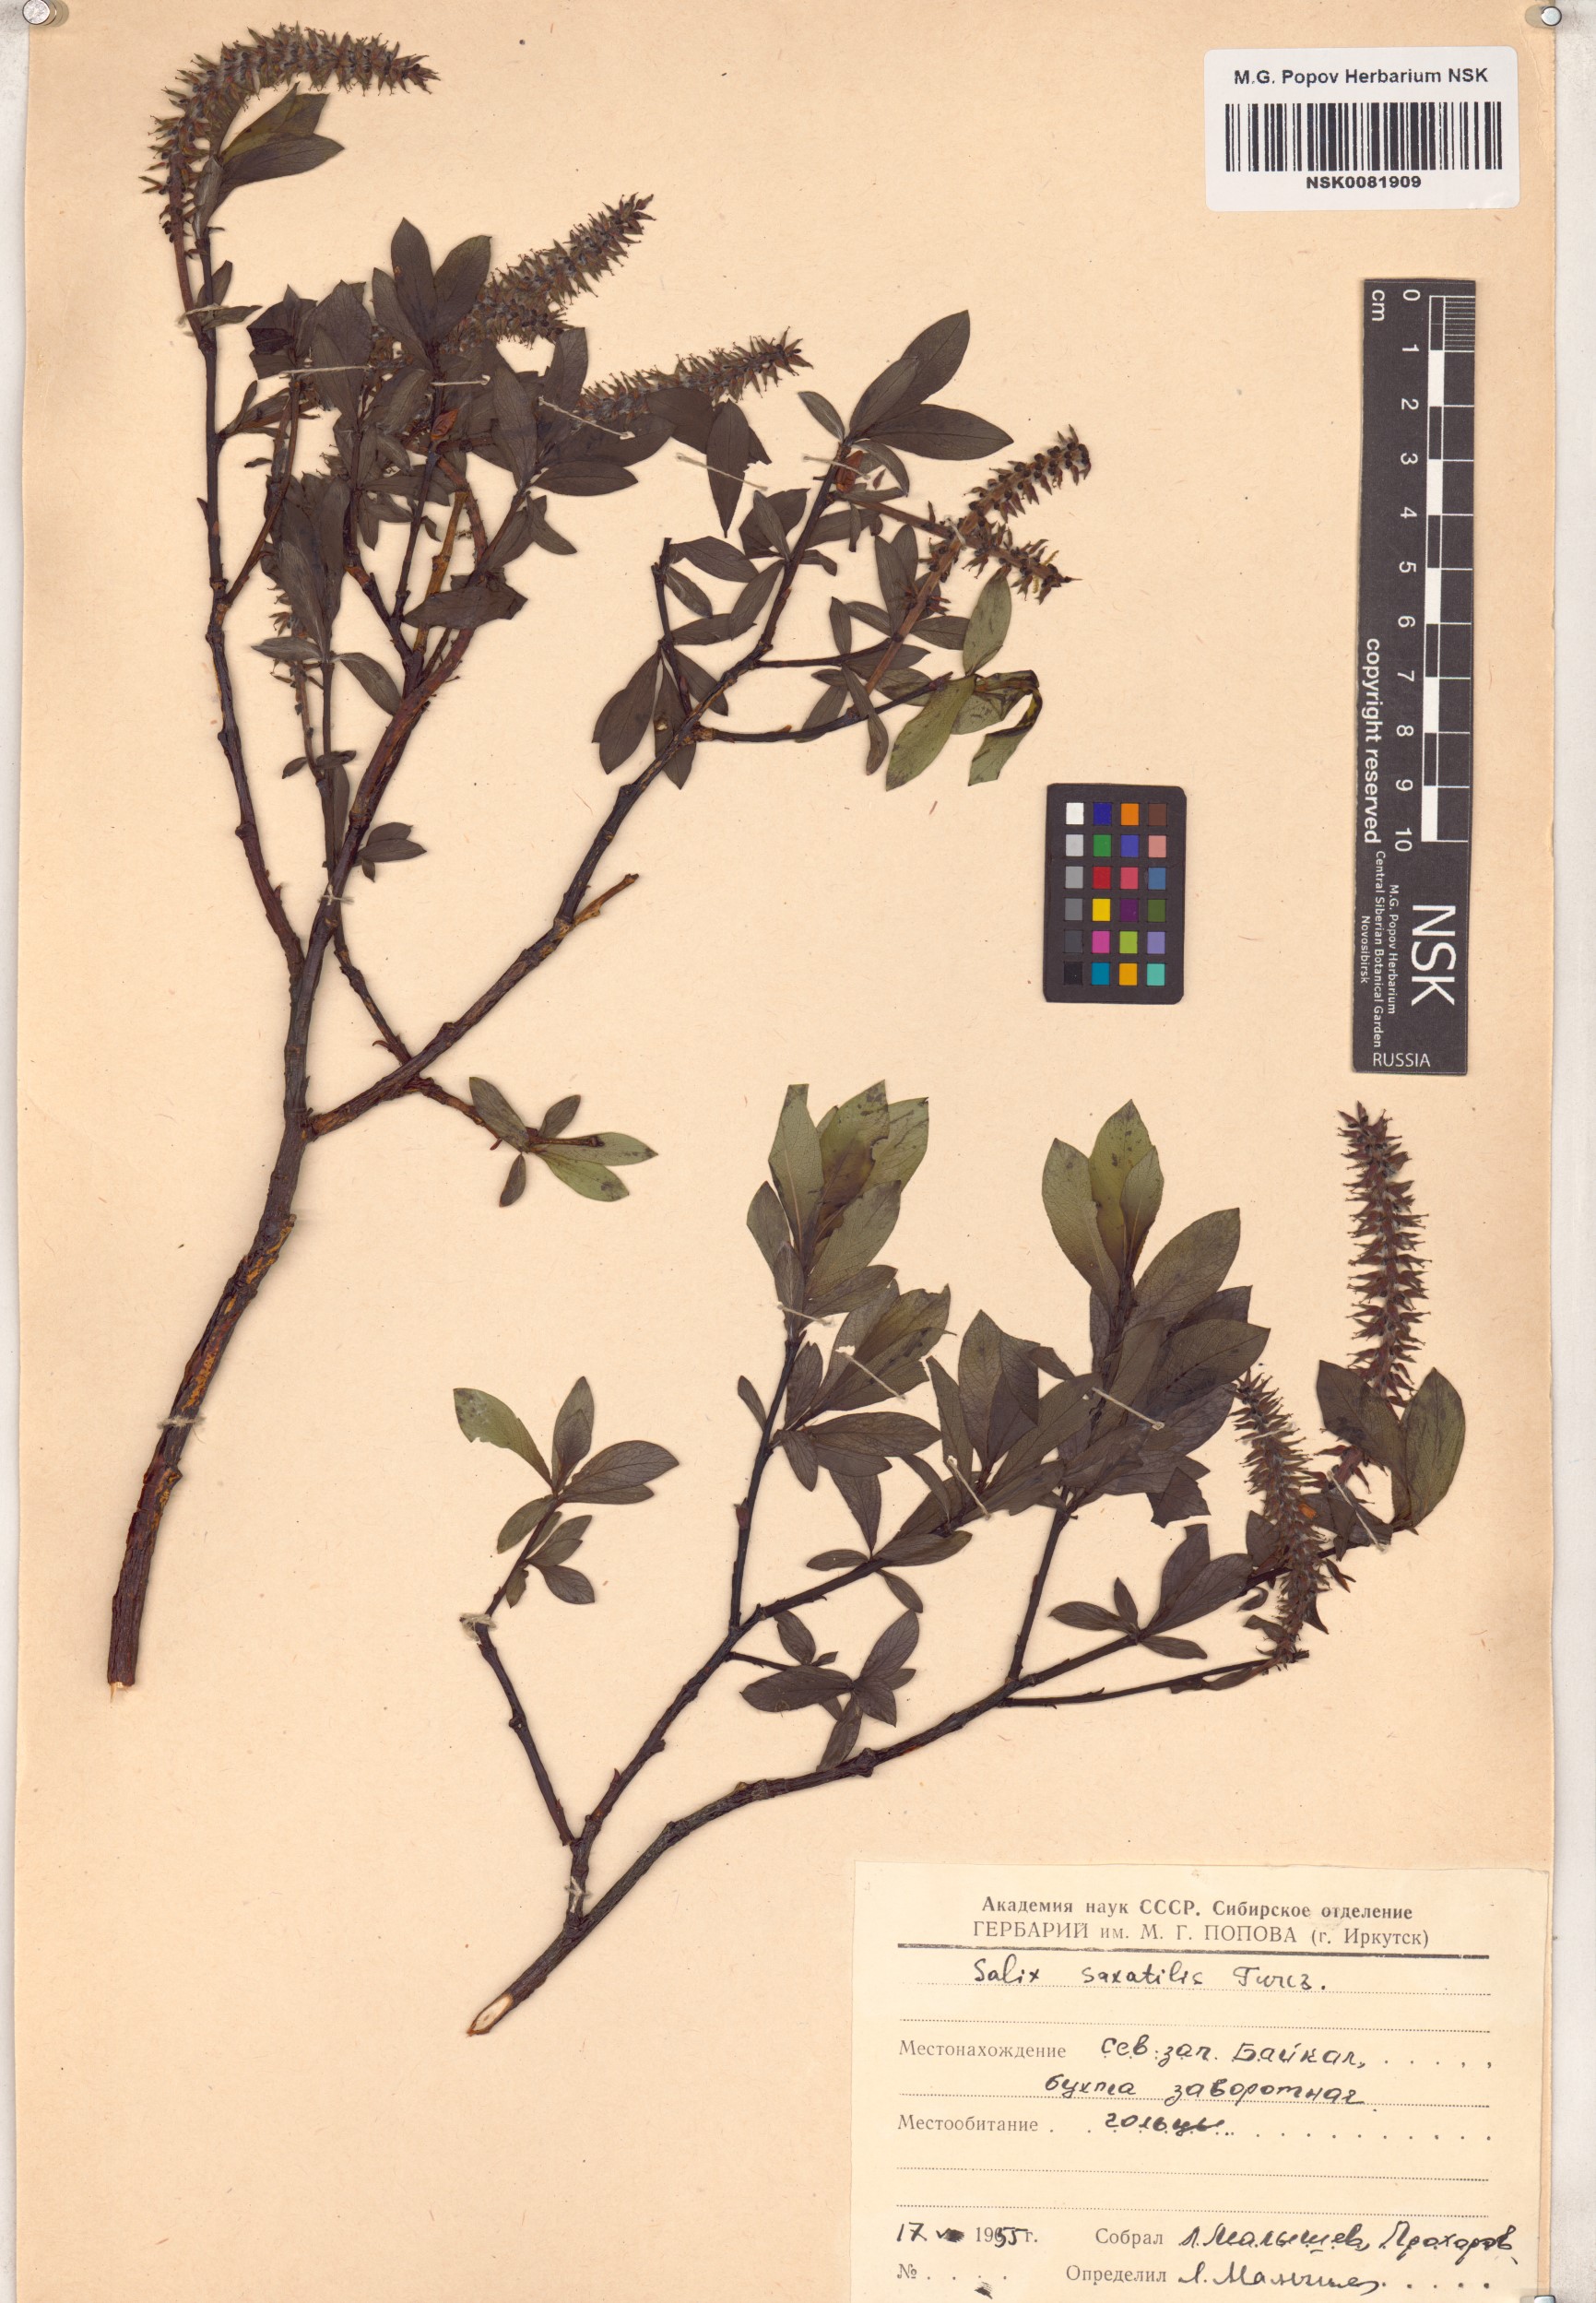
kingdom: Plantae
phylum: Tracheophyta
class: Magnoliopsida
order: Malpighiales
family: Salicaceae
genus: Salix
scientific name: Salix saxatilis
